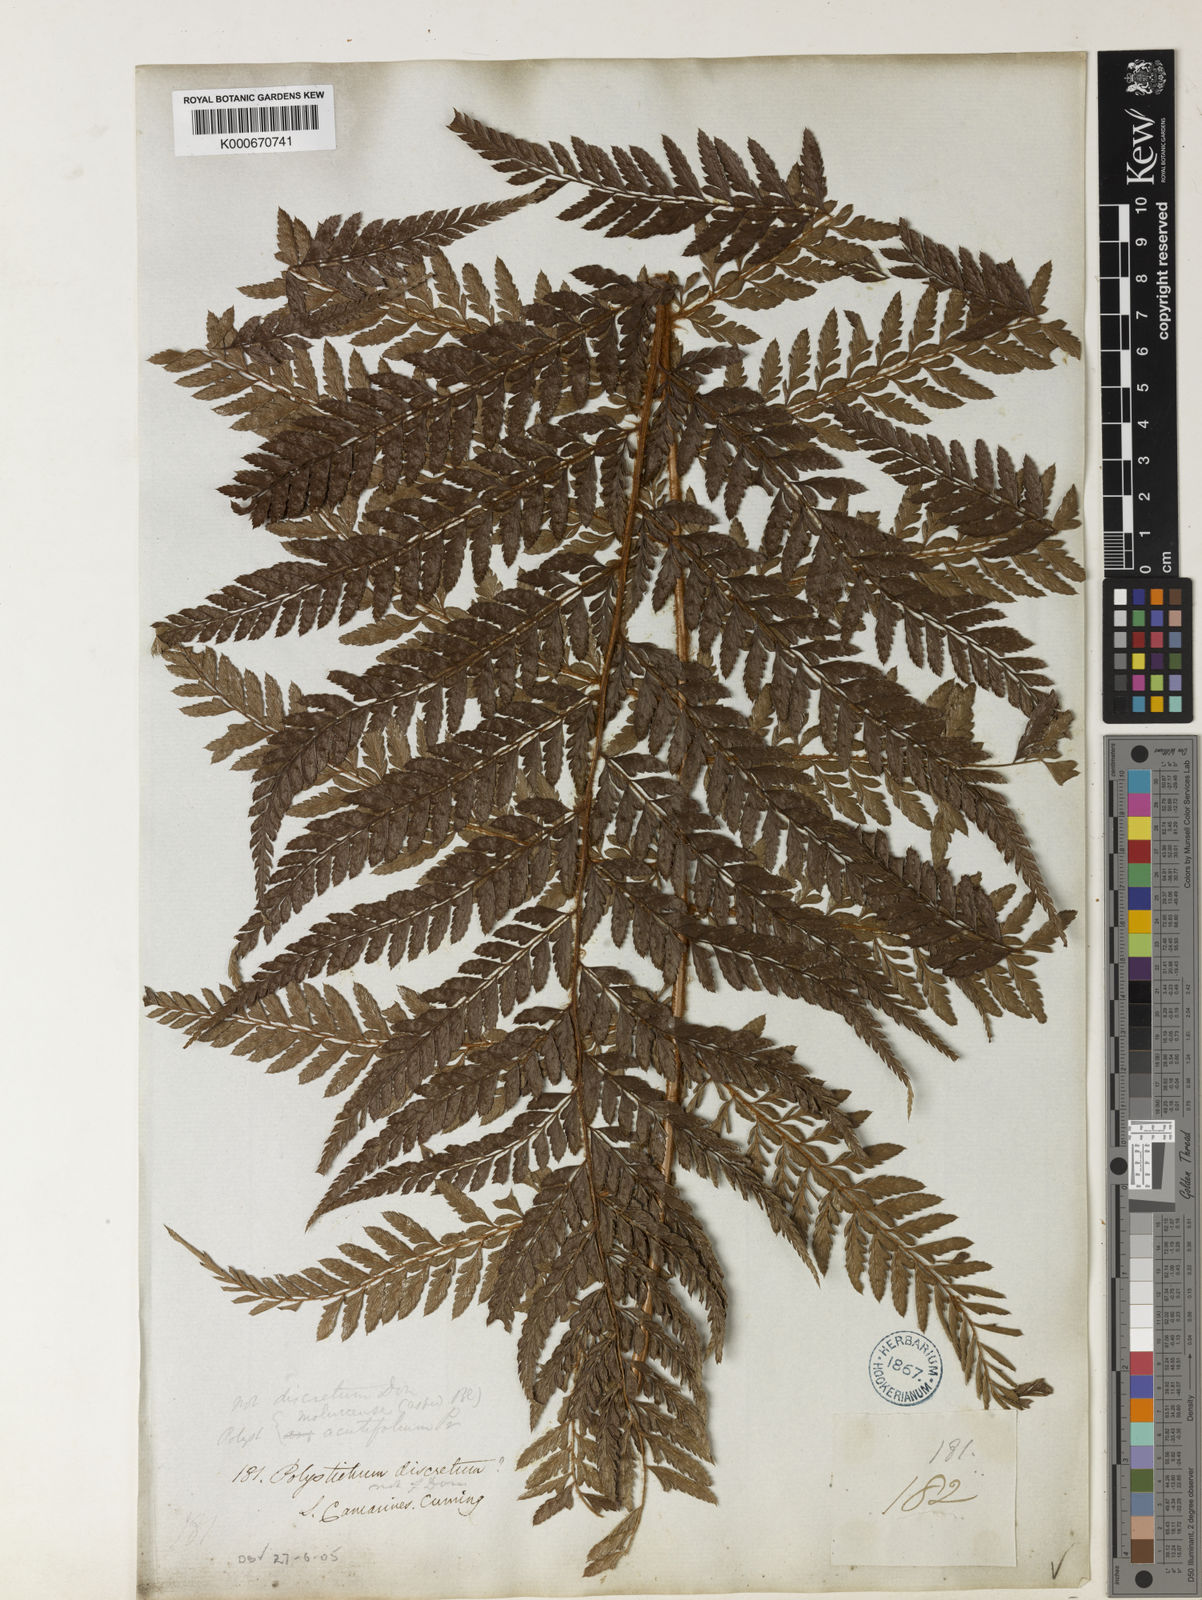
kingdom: Plantae
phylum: Tracheophyta
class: Polypodiopsida
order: Polypodiales
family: Dryopteridaceae
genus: Polystichum
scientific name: Polystichum moluccense
